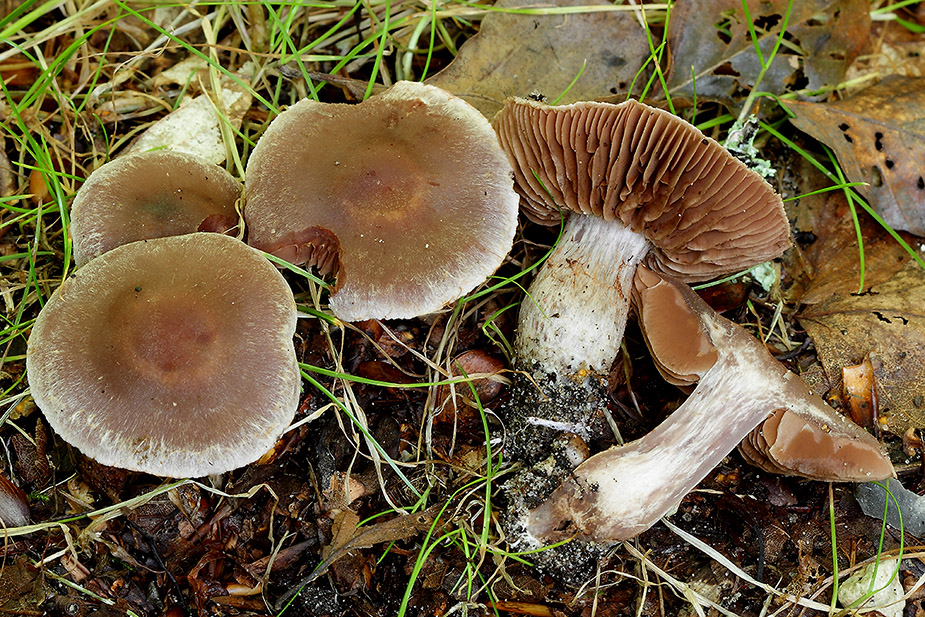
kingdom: Fungi
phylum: Basidiomycota
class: Agaricomycetes
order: Agaricales
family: Cortinariaceae
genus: Cortinarius
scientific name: Cortinarius geniculatus
